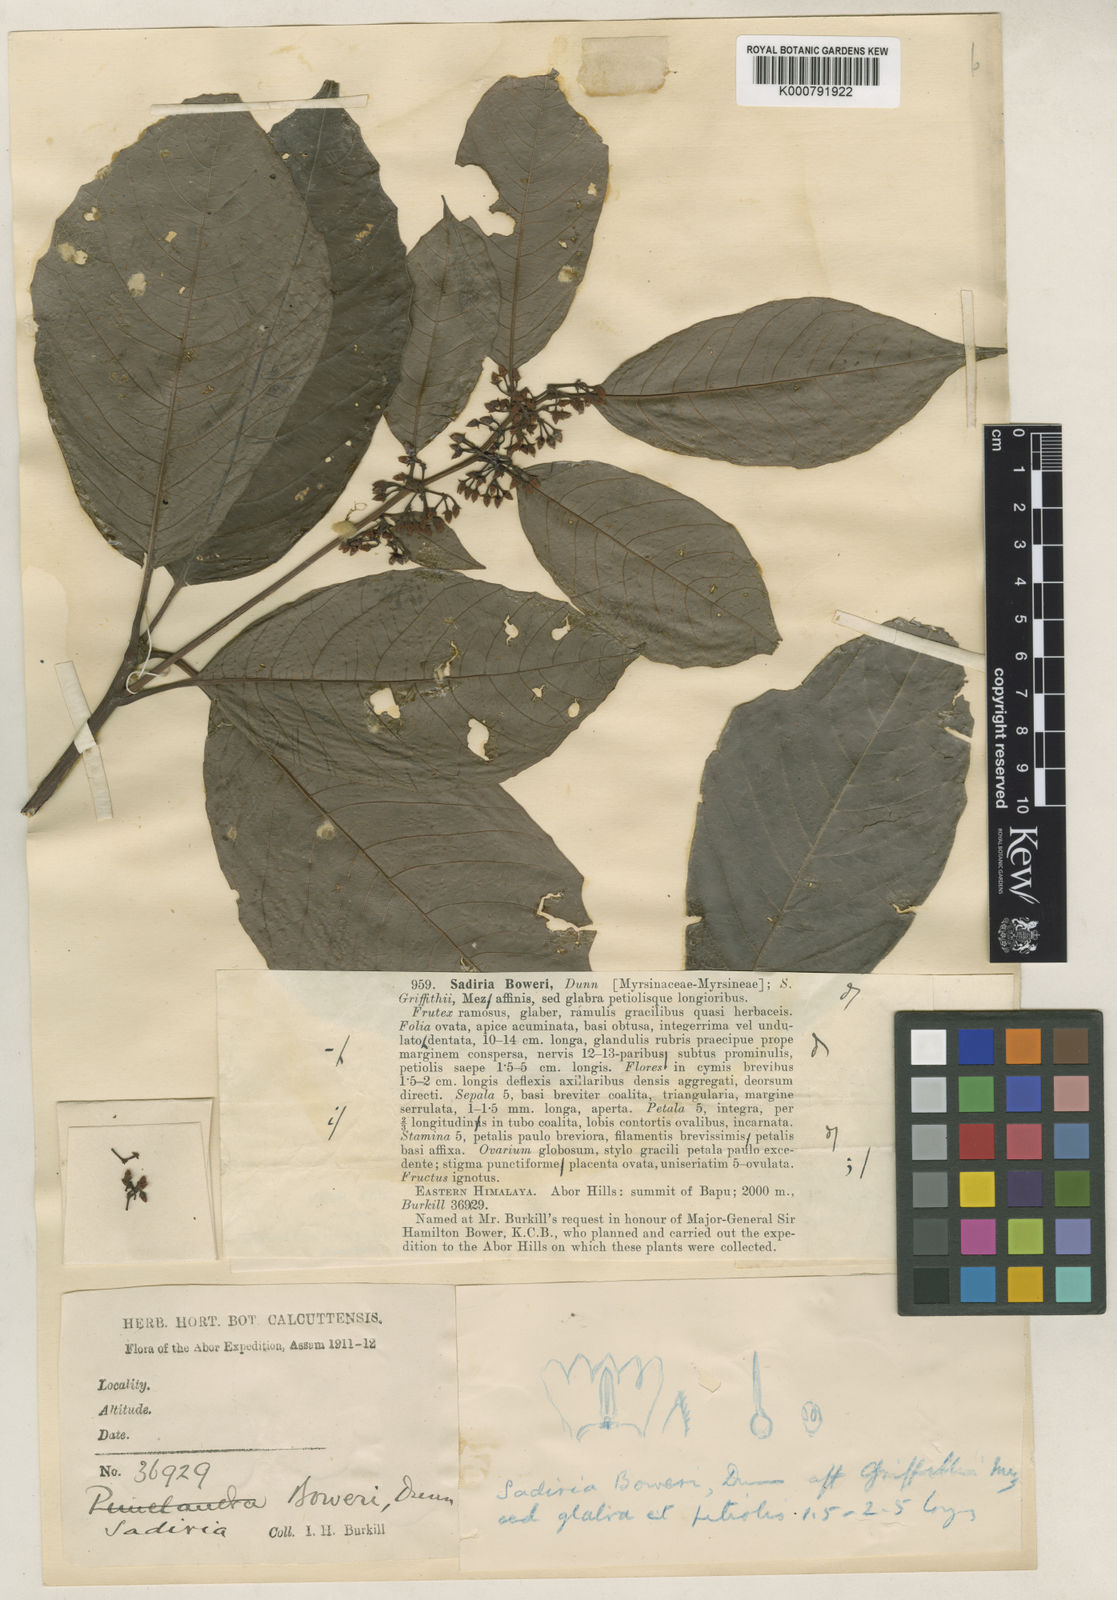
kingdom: Plantae
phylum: Tracheophyta
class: Magnoliopsida
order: Ericales
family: Primulaceae
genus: Sadiria
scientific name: Sadiria griffithii
